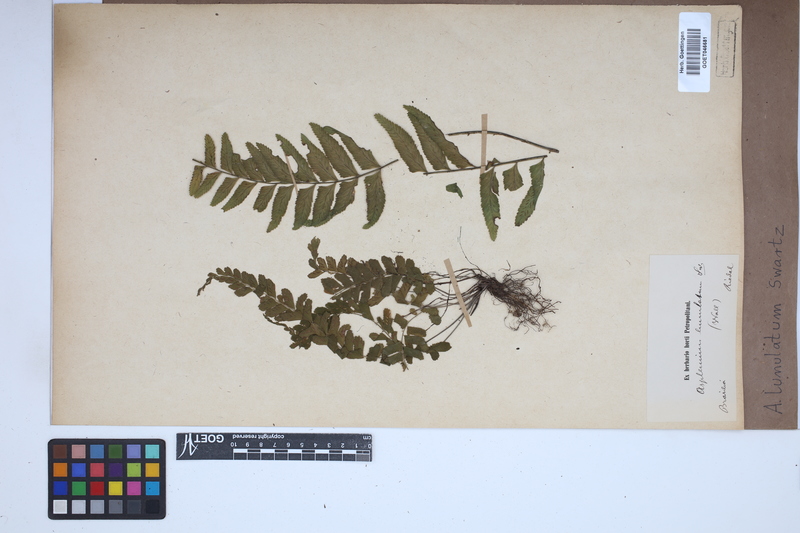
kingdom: Plantae
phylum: Tracheophyta
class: Polypodiopsida
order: Polypodiales
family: Aspleniaceae
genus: Asplenium
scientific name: Asplenium lunulatum
